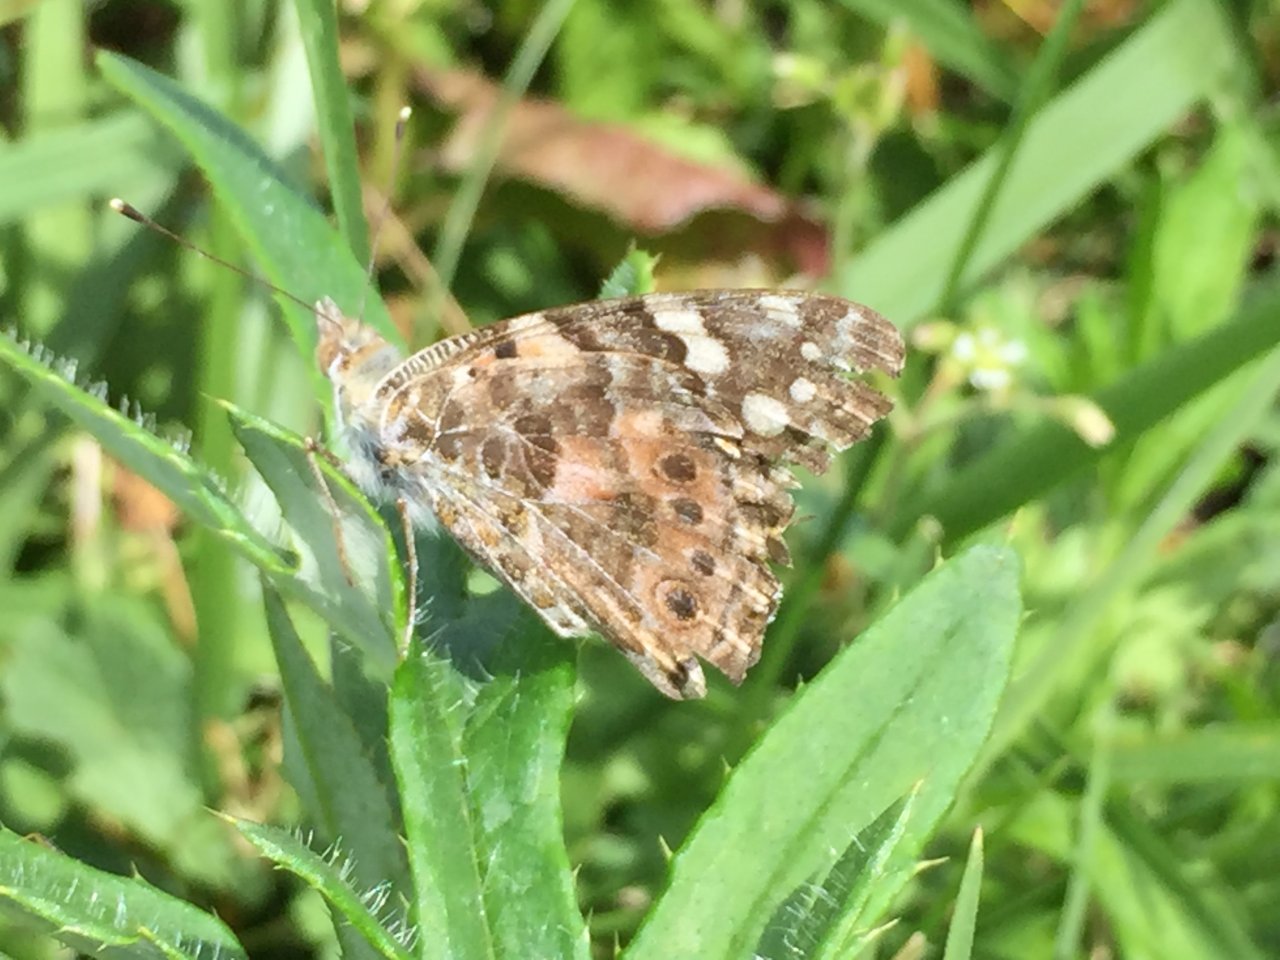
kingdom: Animalia
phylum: Arthropoda
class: Insecta
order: Lepidoptera
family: Nymphalidae
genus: Vanessa
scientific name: Vanessa cardui
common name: Painted Lady
